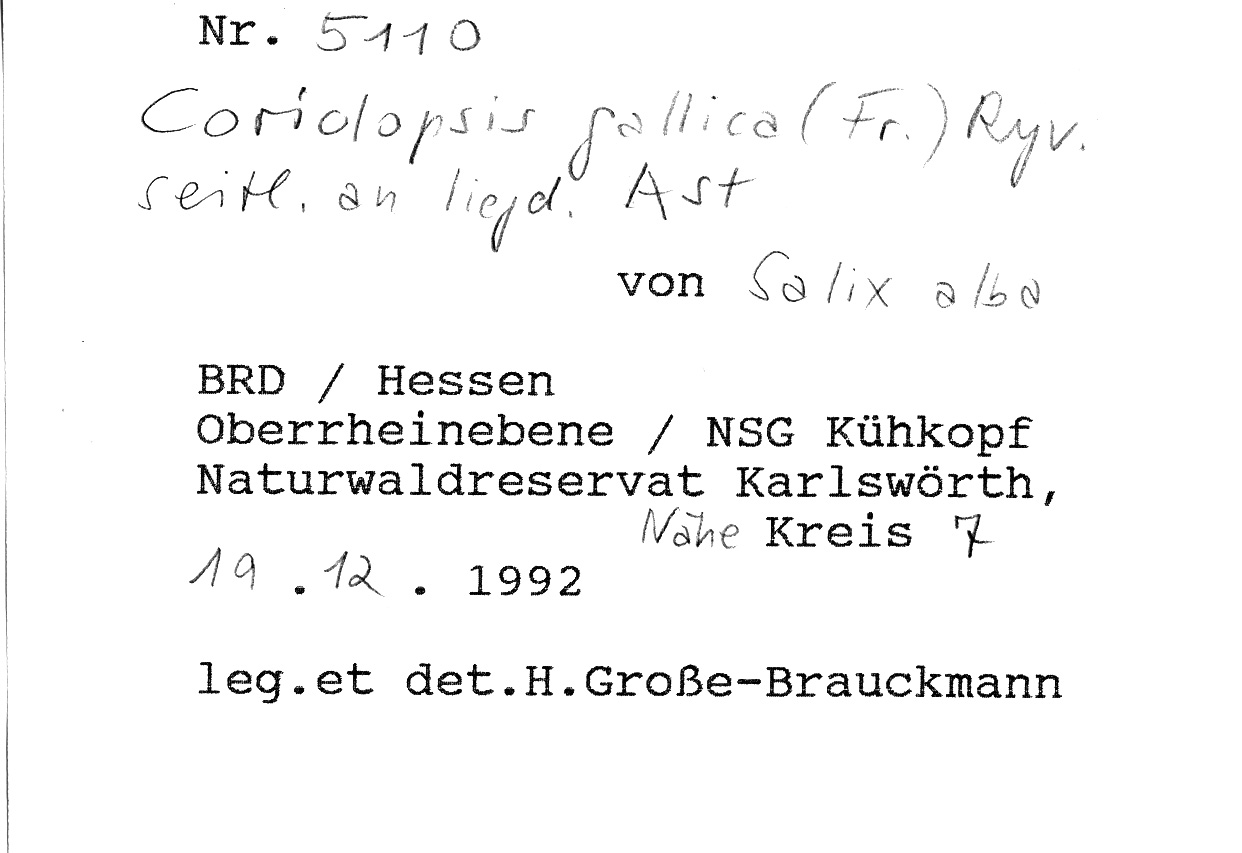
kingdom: Fungi
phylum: Basidiomycota
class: Agaricomycetes
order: Polyporales
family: Polyporaceae
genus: Coriolopsis
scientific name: Coriolopsis gallica
